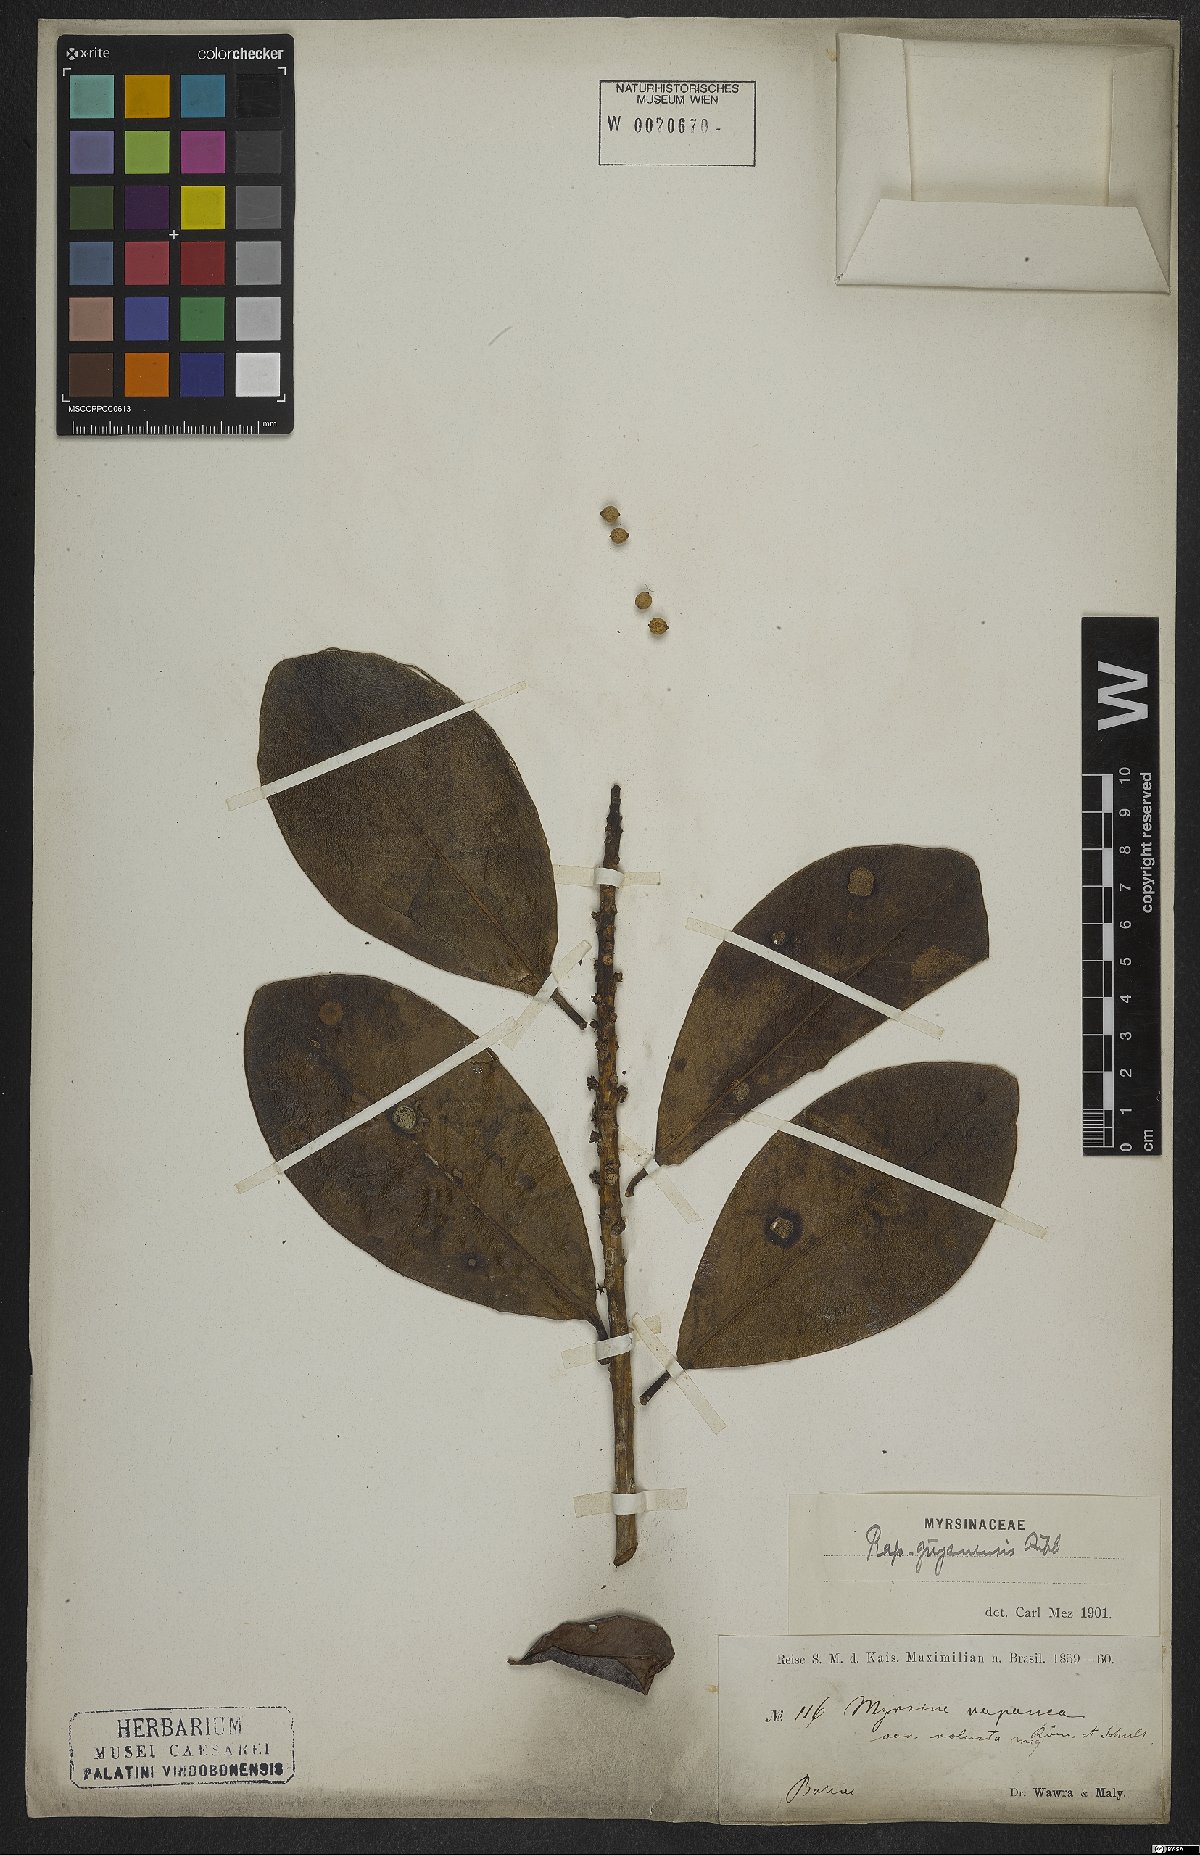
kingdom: Plantae
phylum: Tracheophyta
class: Magnoliopsida
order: Ericales
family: Primulaceae
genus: Myrsine
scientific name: Myrsine guianensis
